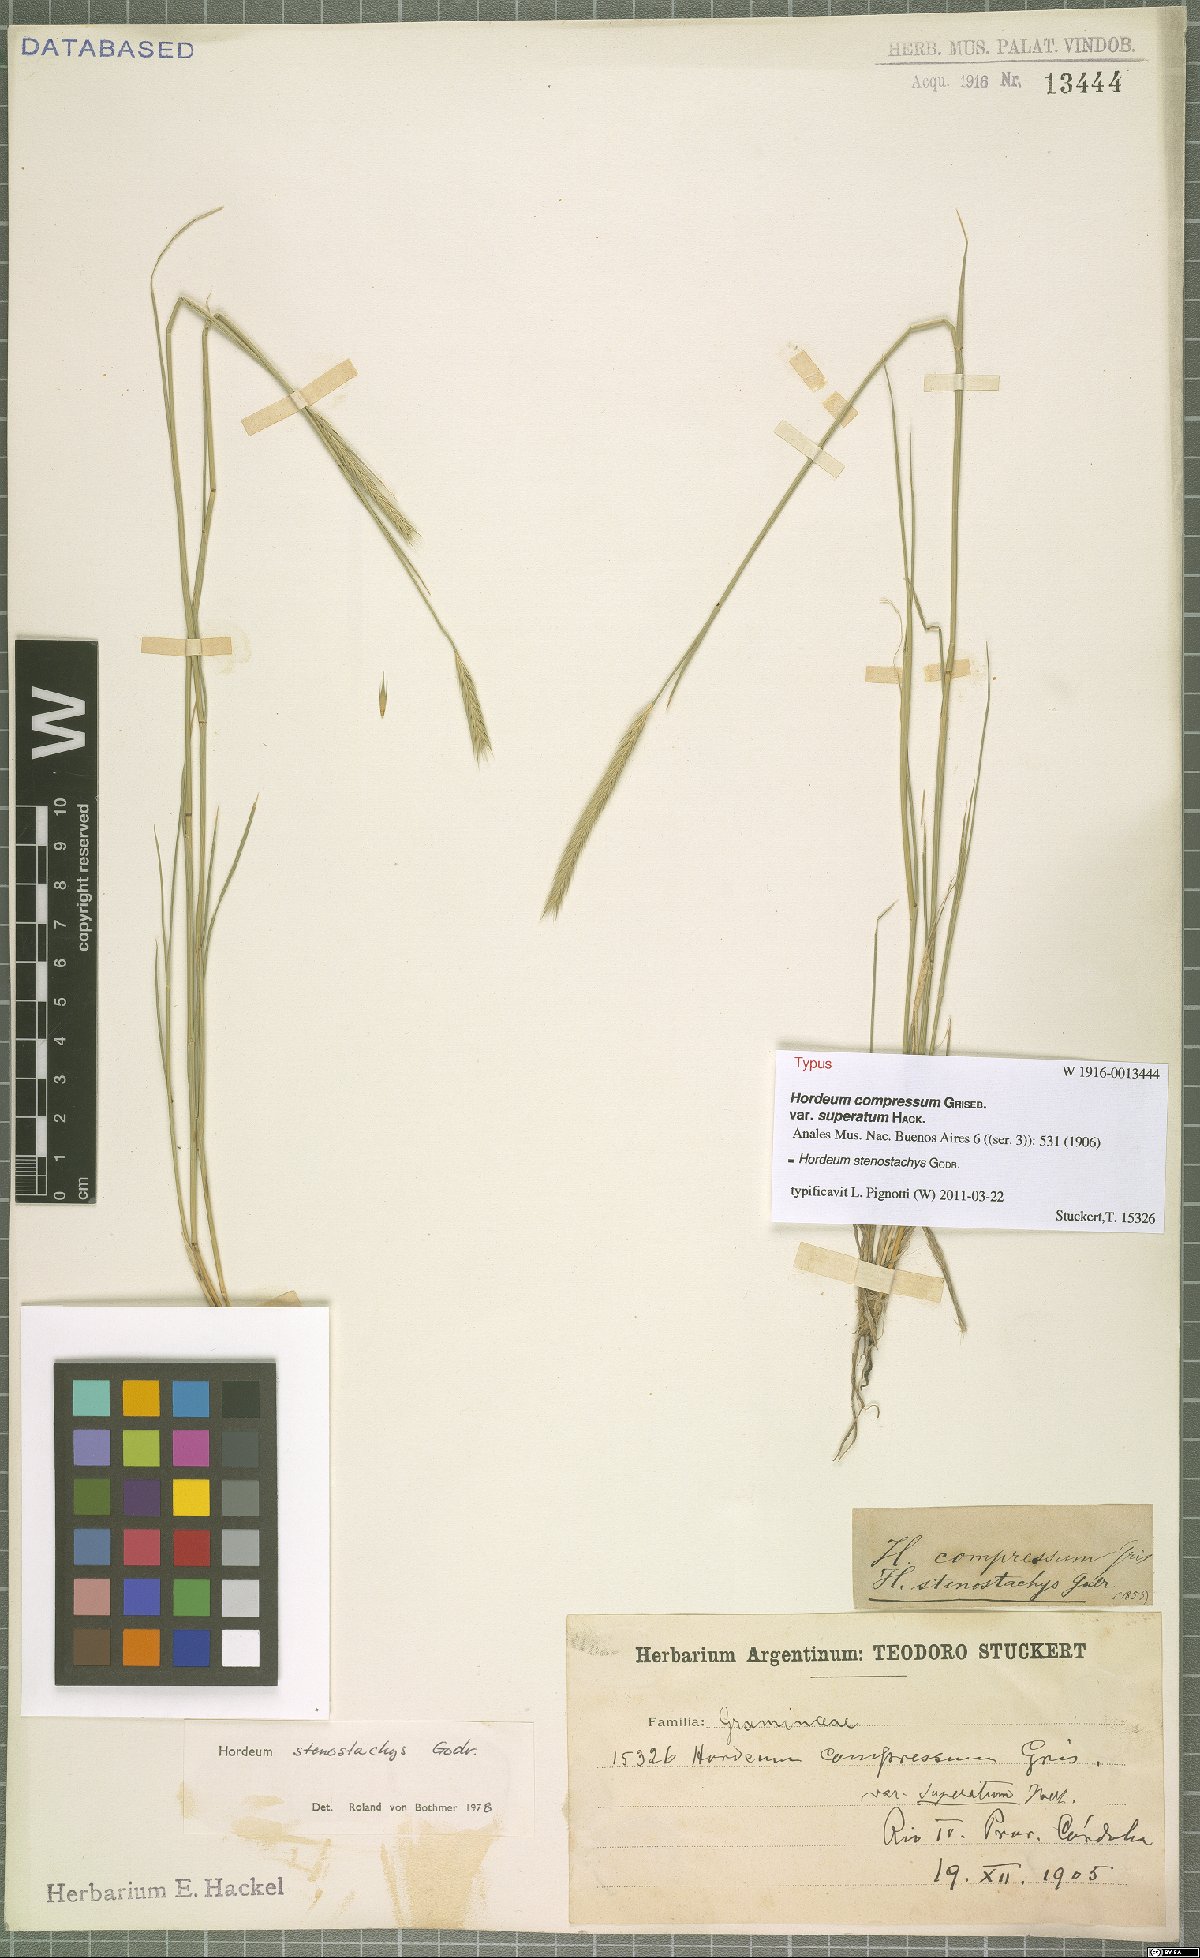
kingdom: Plantae
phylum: Tracheophyta
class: Liliopsida
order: Poales
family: Poaceae
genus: Hordeum
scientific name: Hordeum stenostachys
